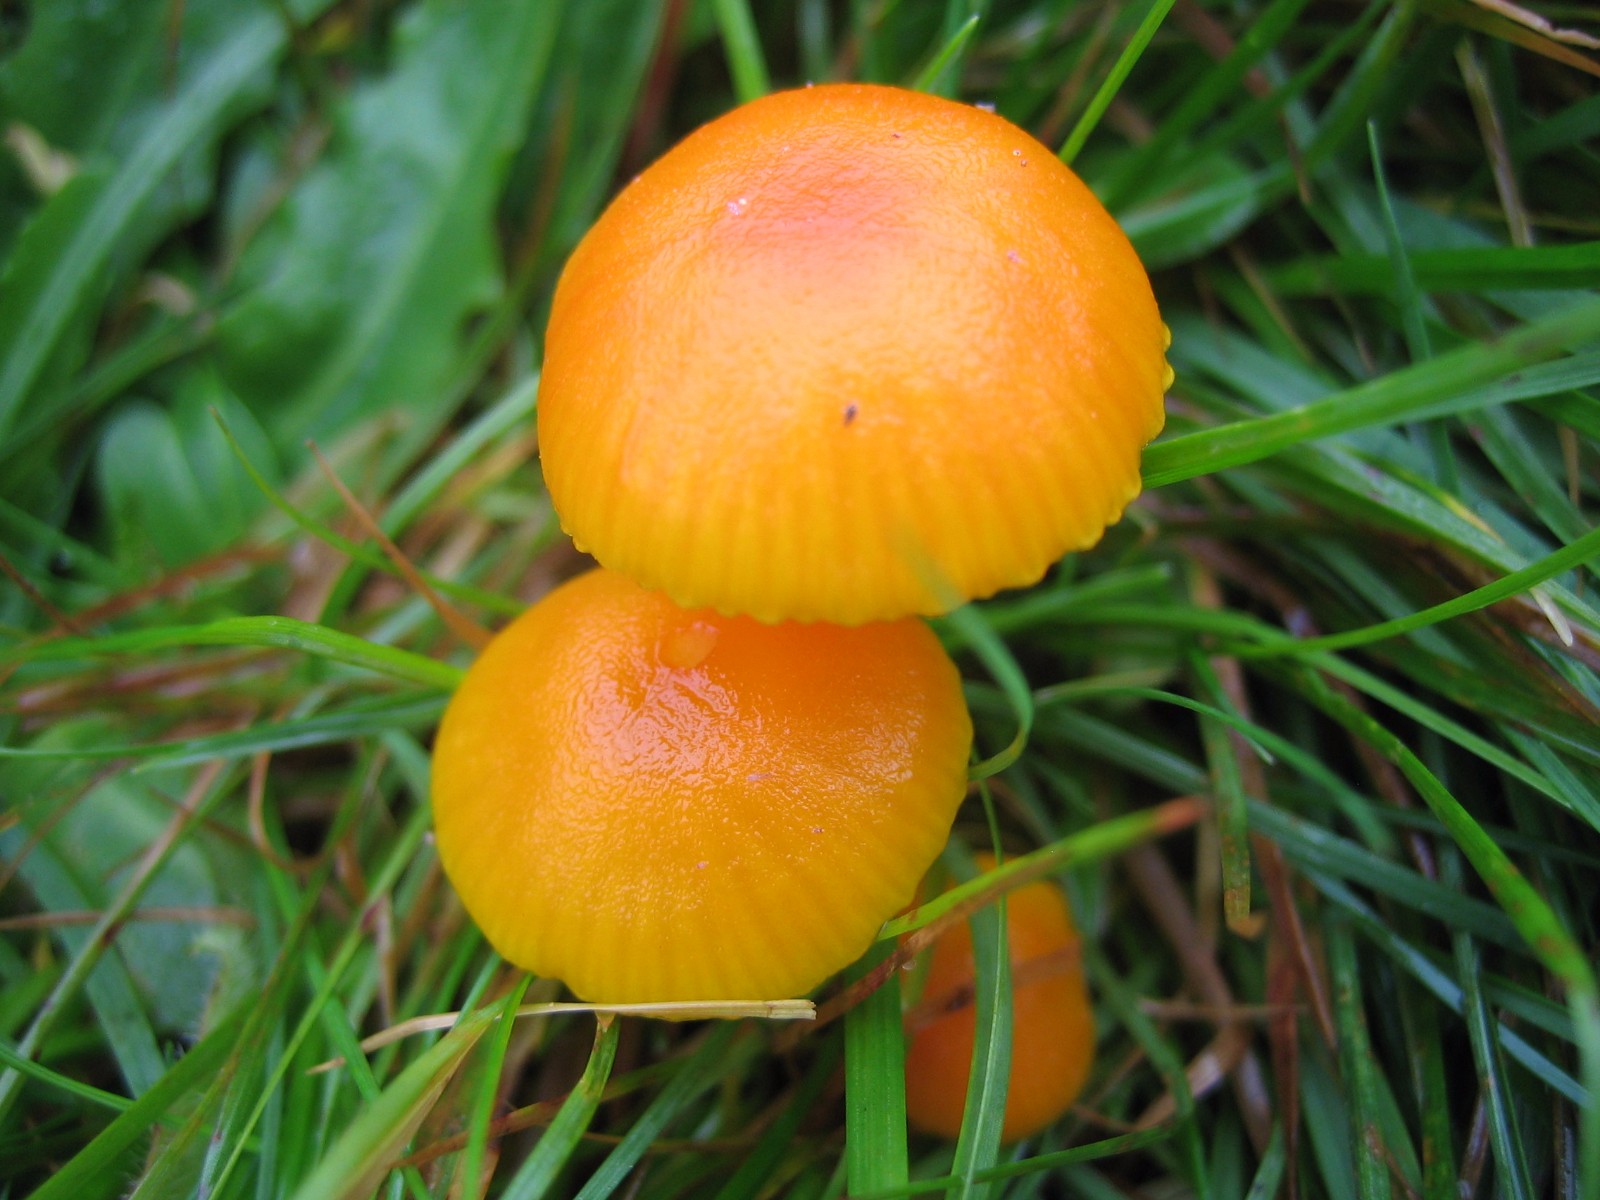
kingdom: Fungi
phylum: Basidiomycota
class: Agaricomycetes
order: Agaricales
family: Hygrophoraceae
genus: Hygrocybe
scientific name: Hygrocybe miniata
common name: mønje-vokshat
